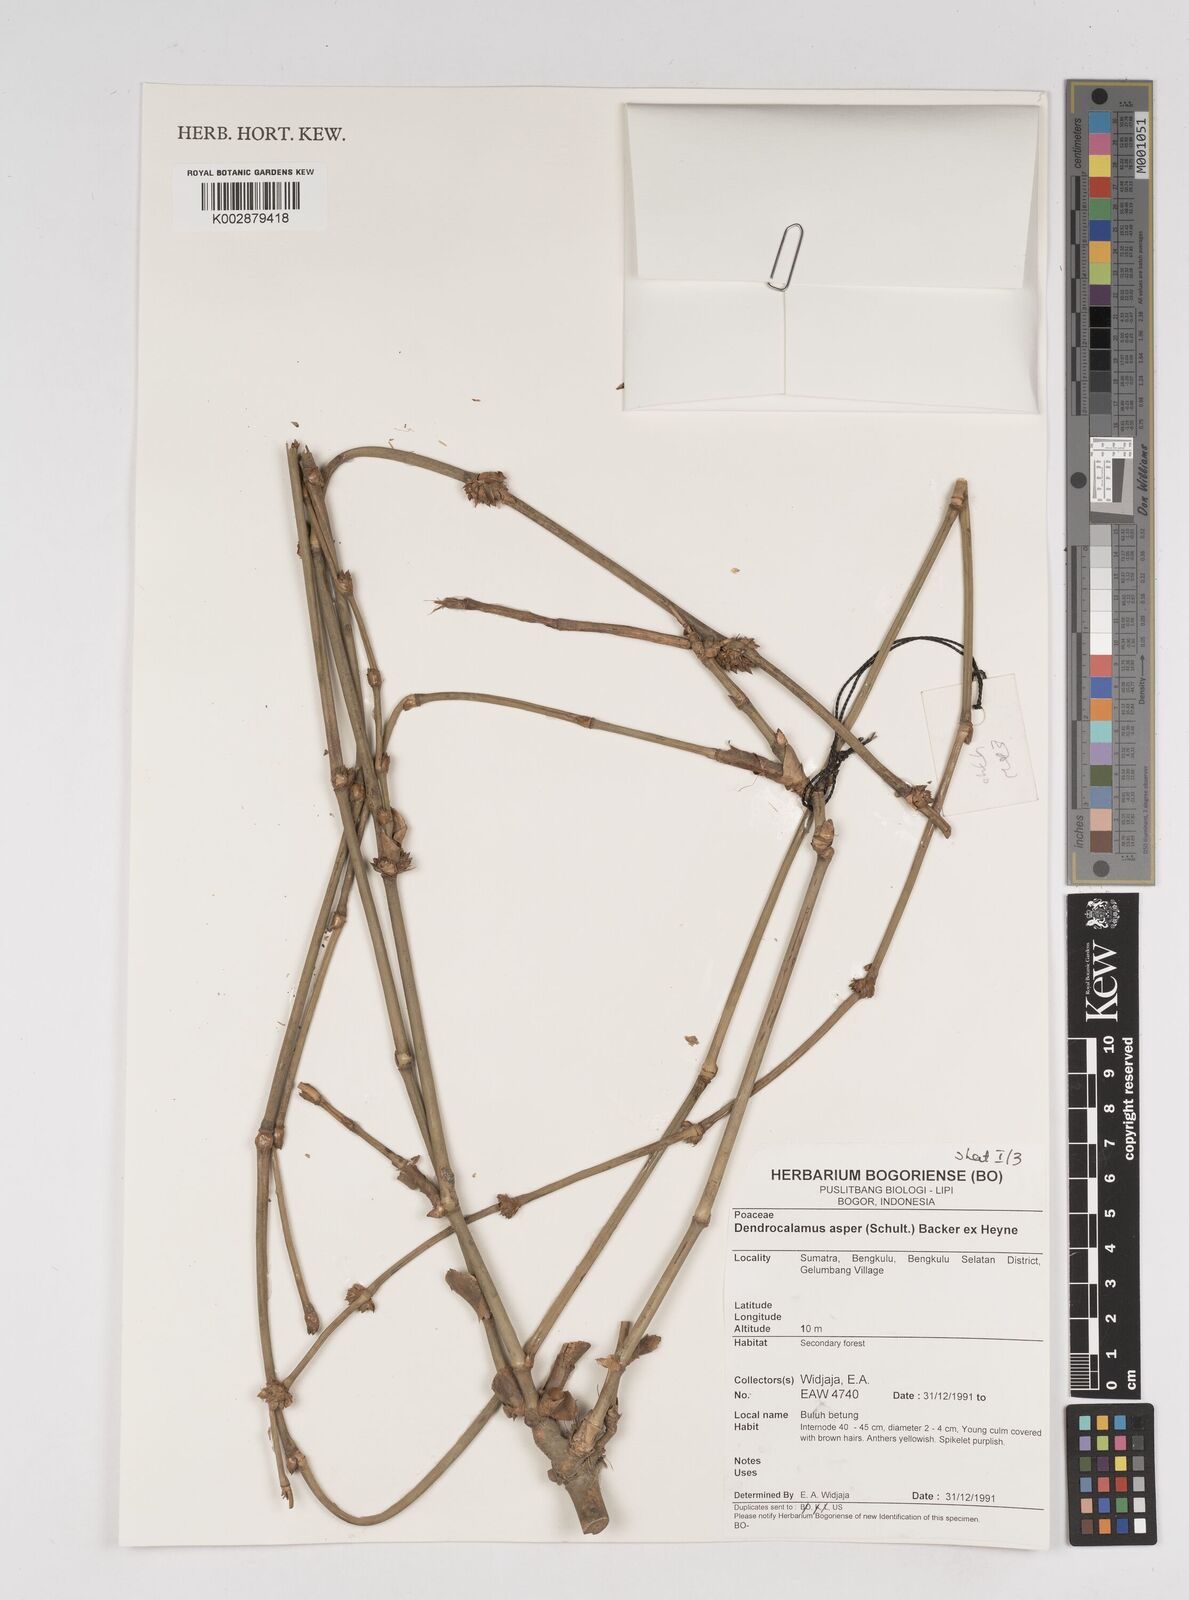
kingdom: Plantae
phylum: Tracheophyta
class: Liliopsida
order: Poales
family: Poaceae
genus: Dendrocalamus
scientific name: Dendrocalamus asper
